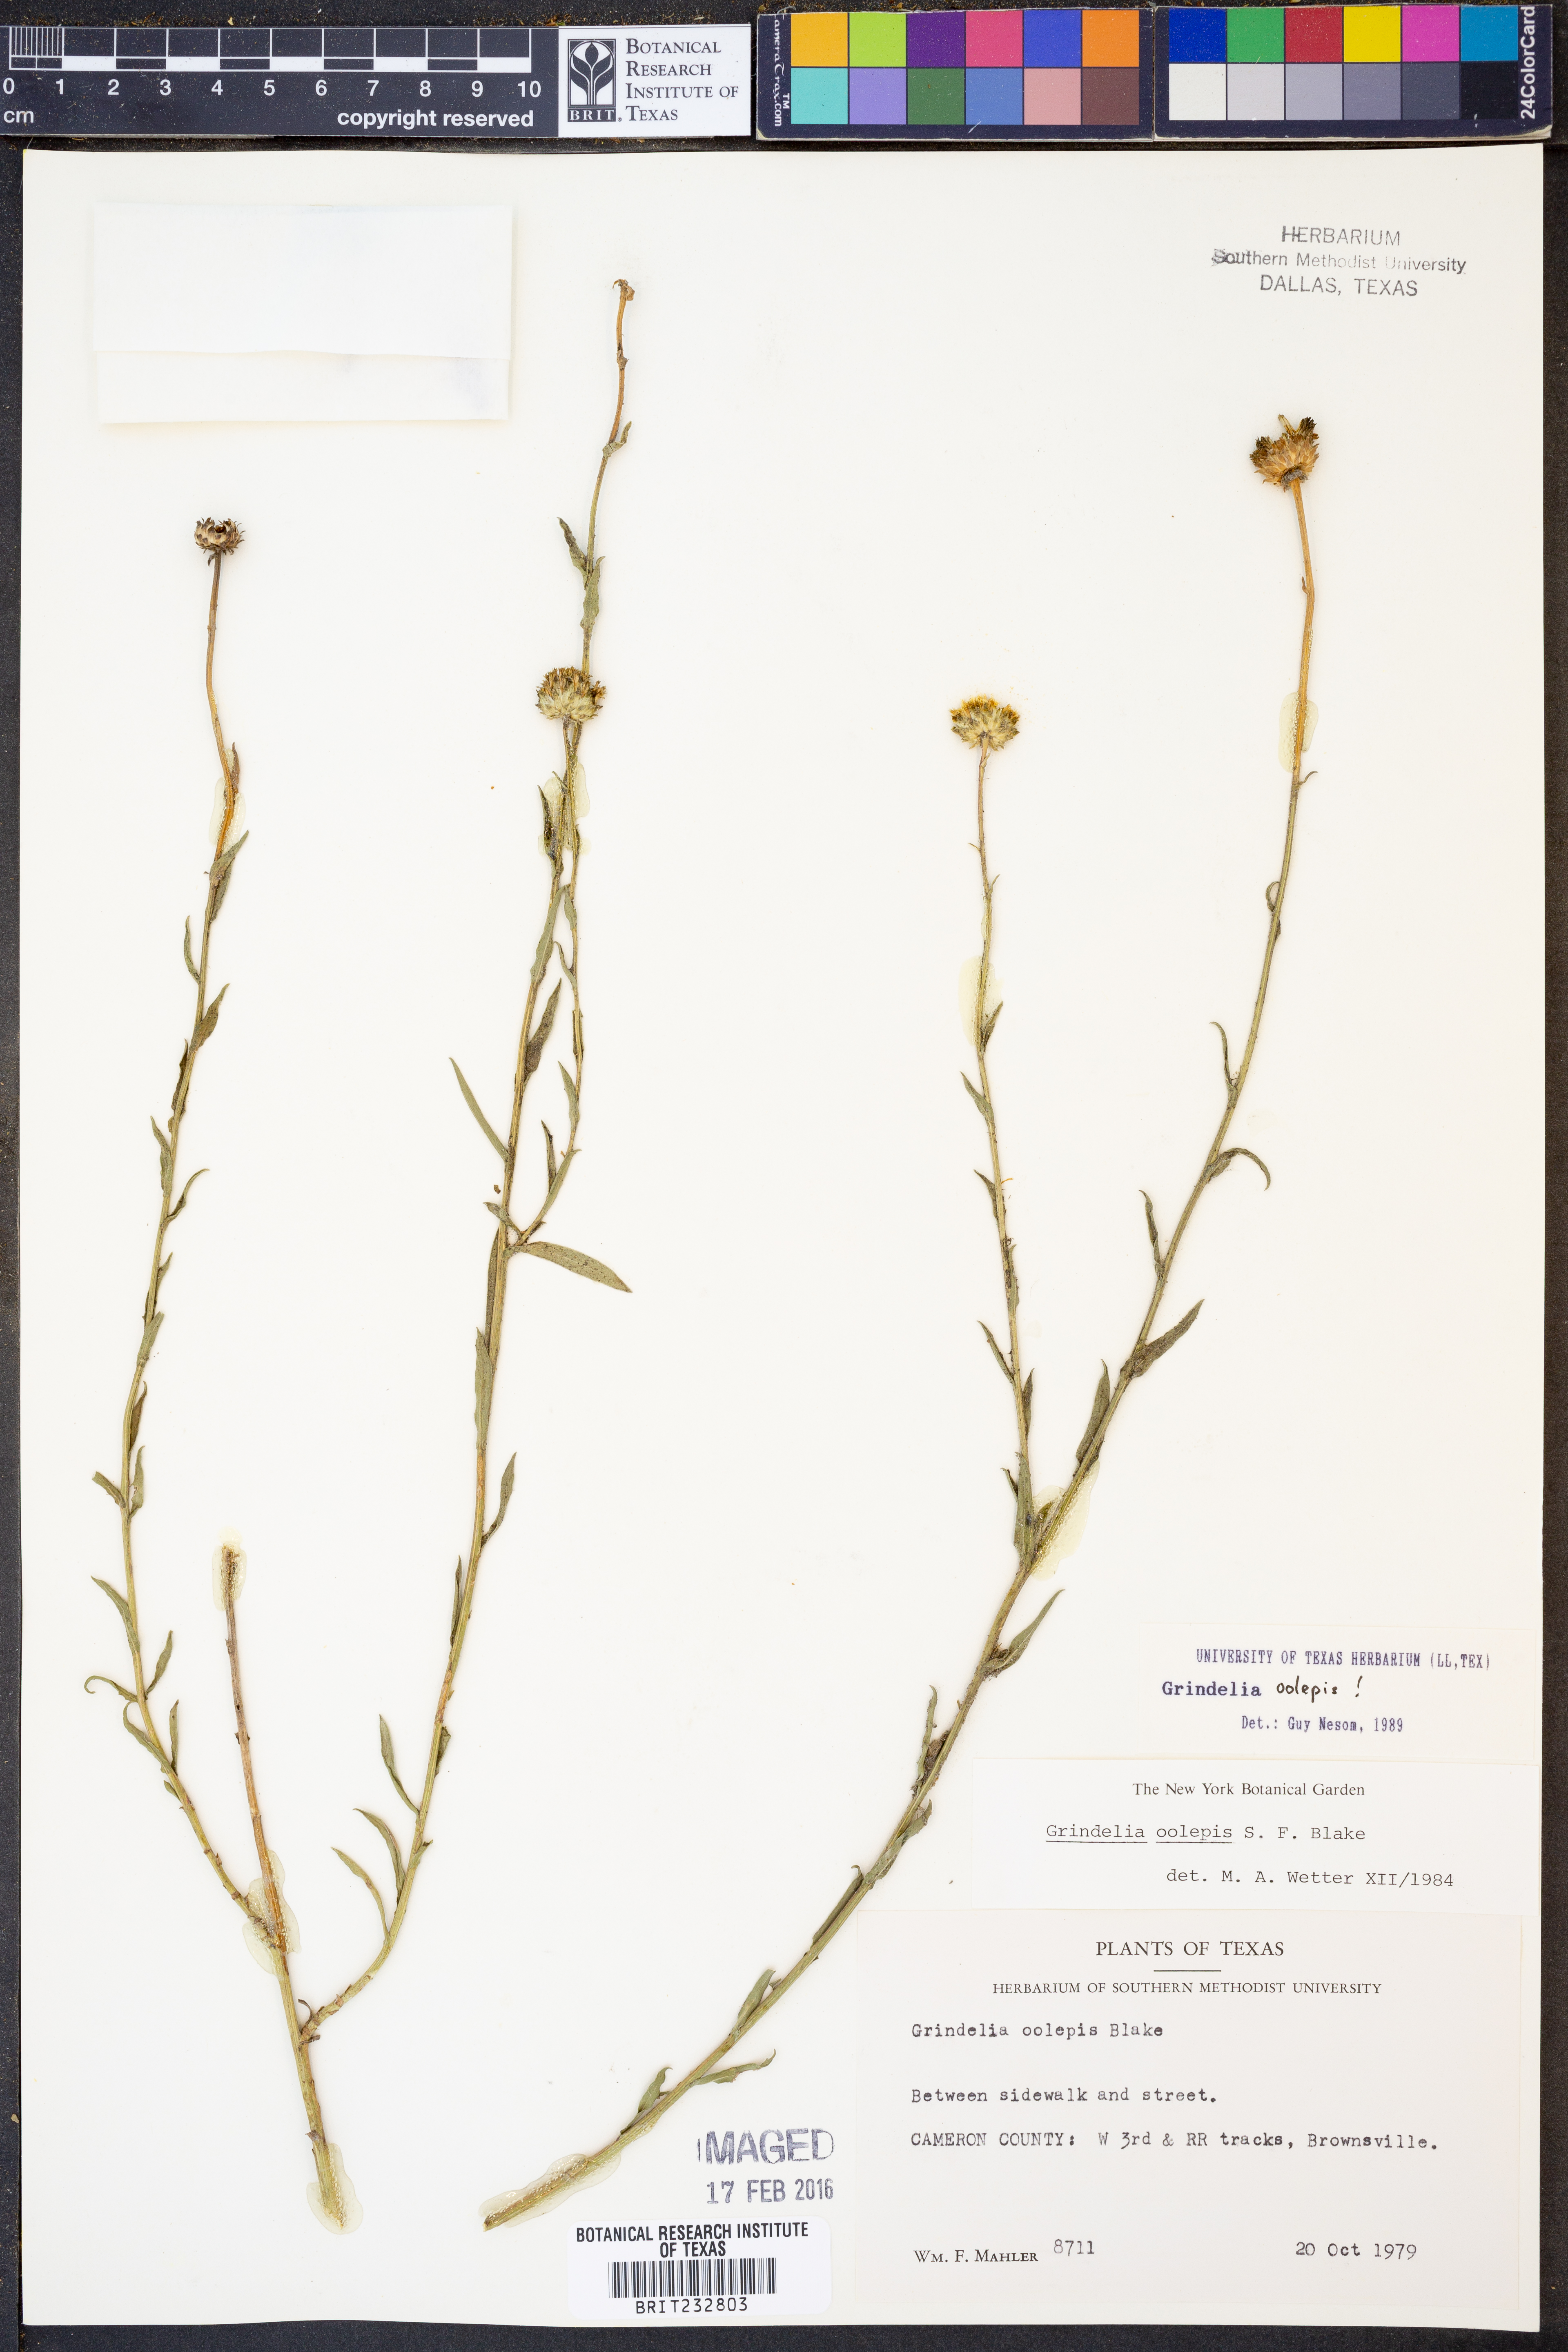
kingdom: Plantae
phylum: Tracheophyta
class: Magnoliopsida
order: Asterales
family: Asteraceae
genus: Grindelia
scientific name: Grindelia oolepis
